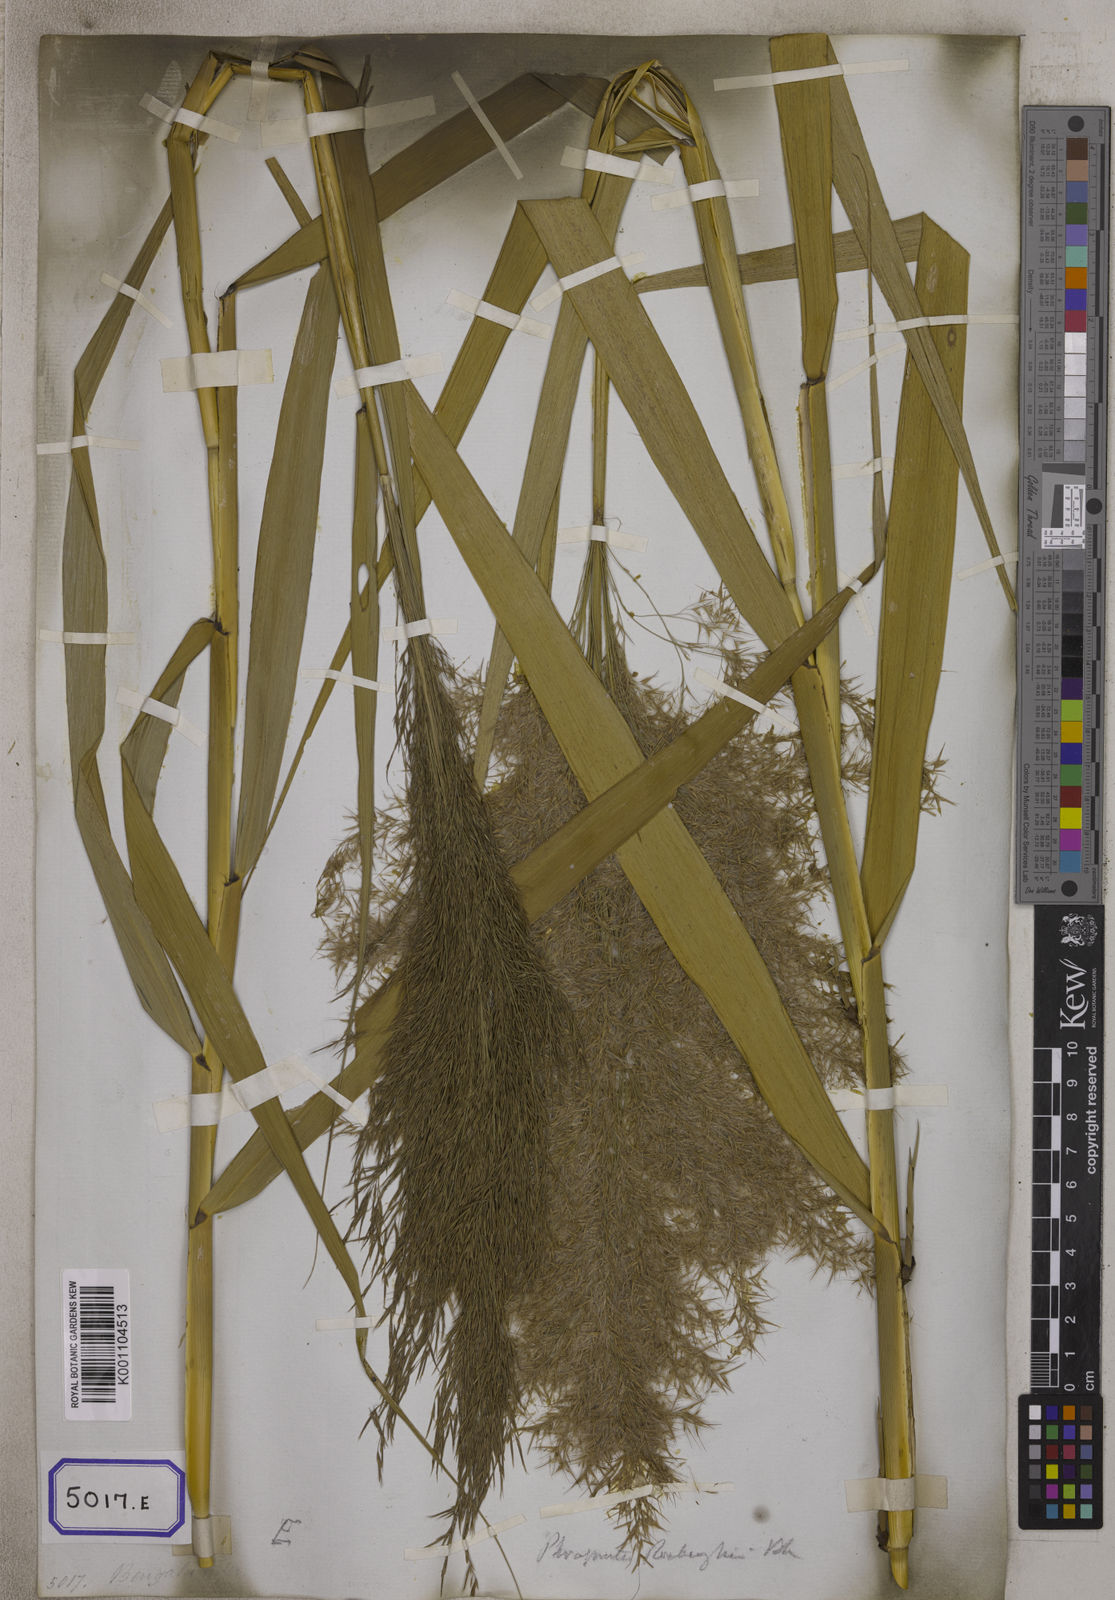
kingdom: Plantae
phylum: Tracheophyta
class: Liliopsida
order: Poales
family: Poaceae
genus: Arundo
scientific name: Arundo
